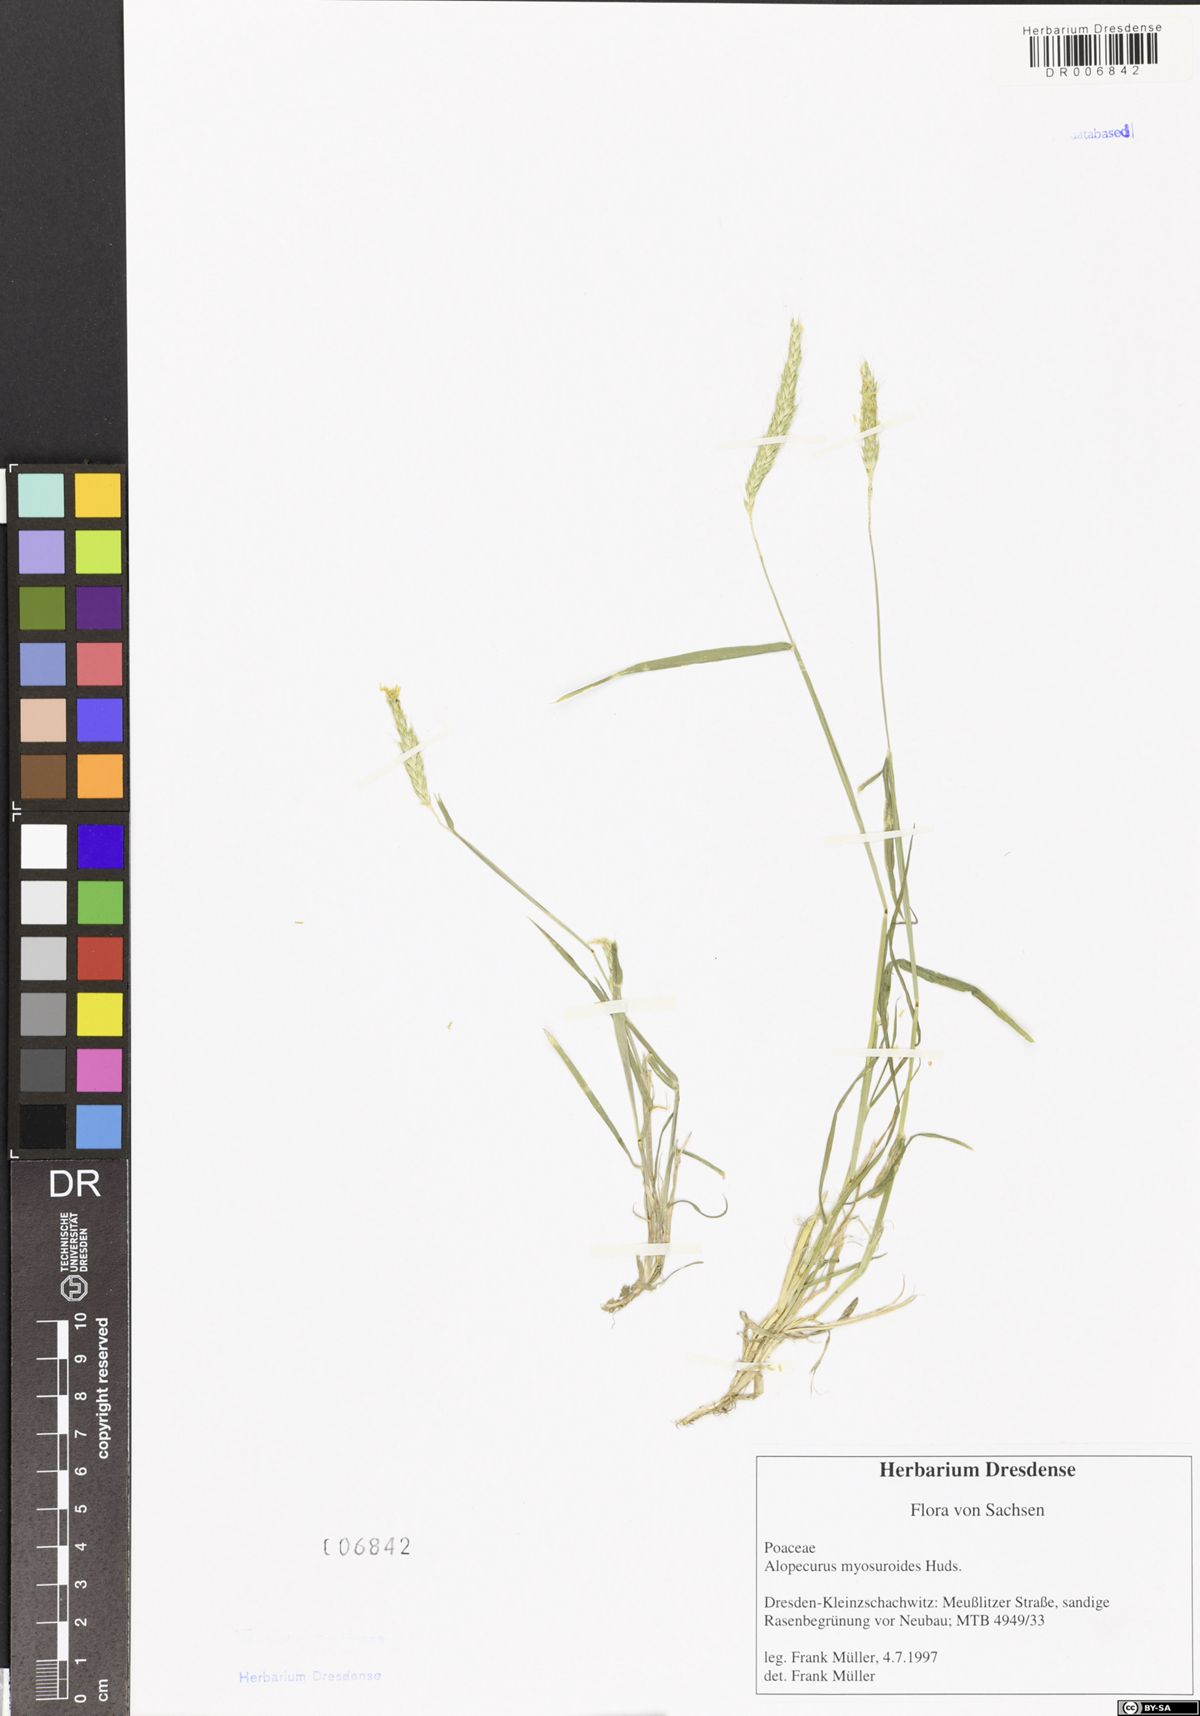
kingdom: Plantae
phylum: Tracheophyta
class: Liliopsida
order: Poales
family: Poaceae
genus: Alopecurus
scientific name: Alopecurus myosuroides
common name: Black-grass
